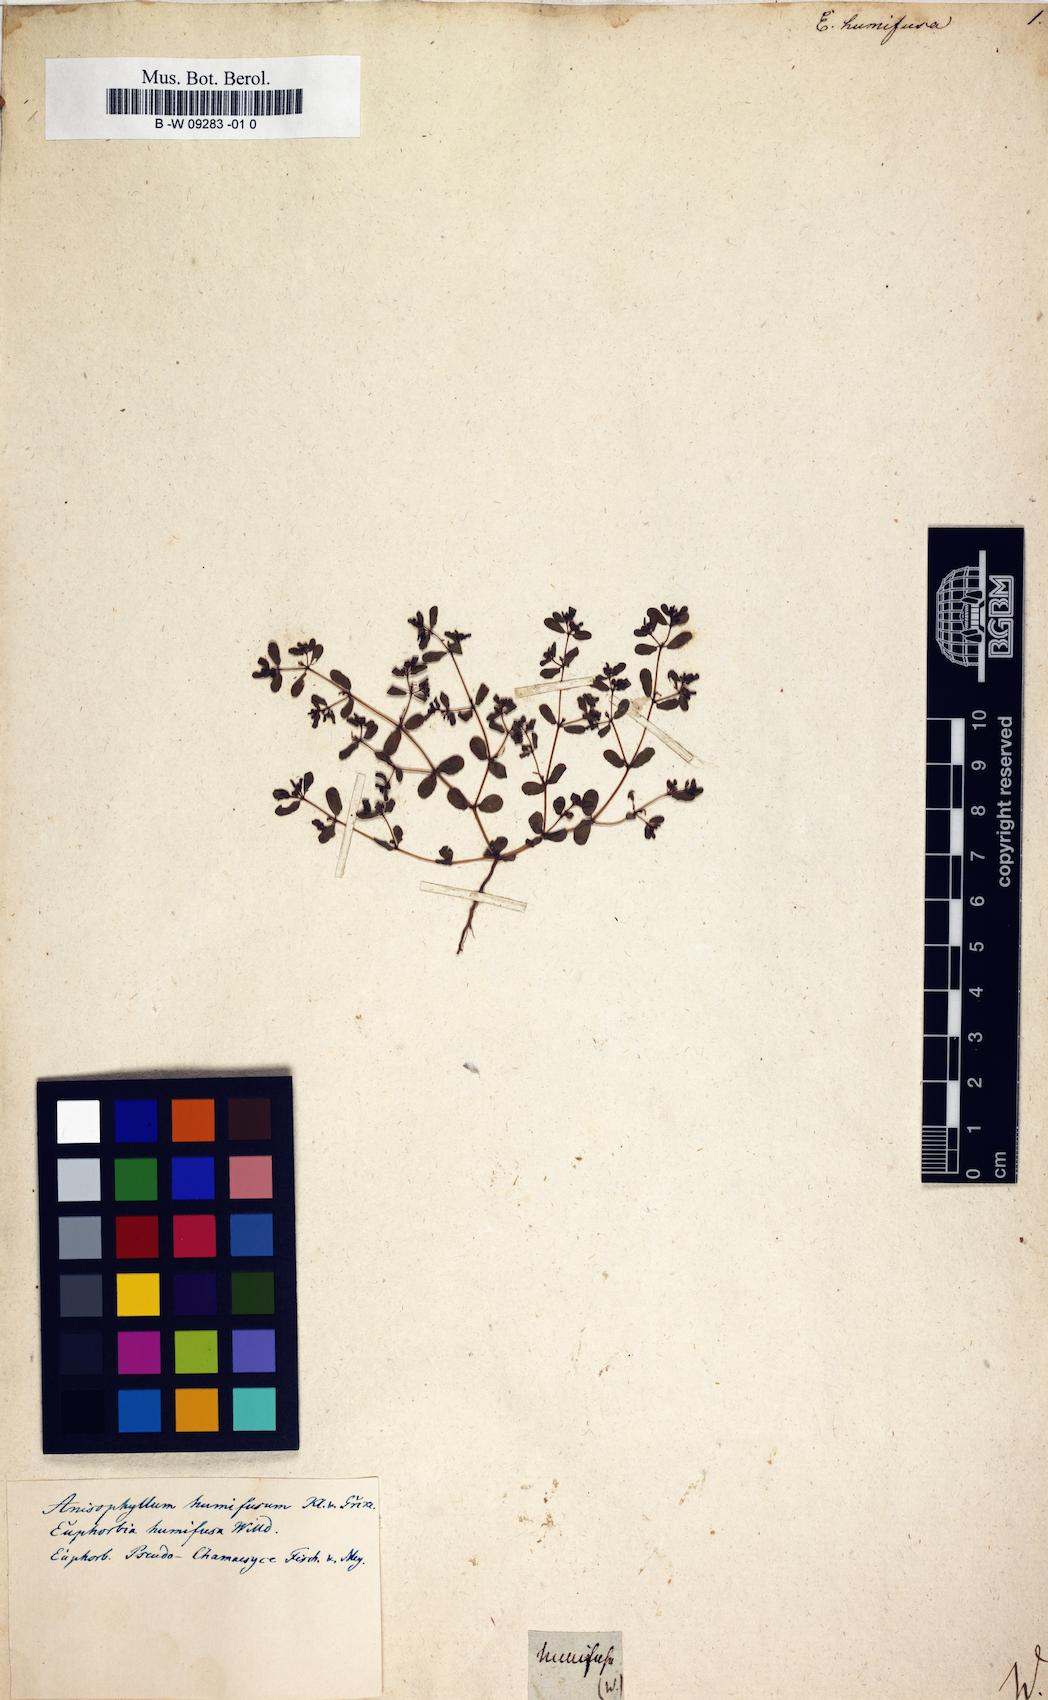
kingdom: Plantae
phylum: Tracheophyta
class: Magnoliopsida
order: Malpighiales
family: Euphorbiaceae
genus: Euphorbia
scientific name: Euphorbia humifusa
